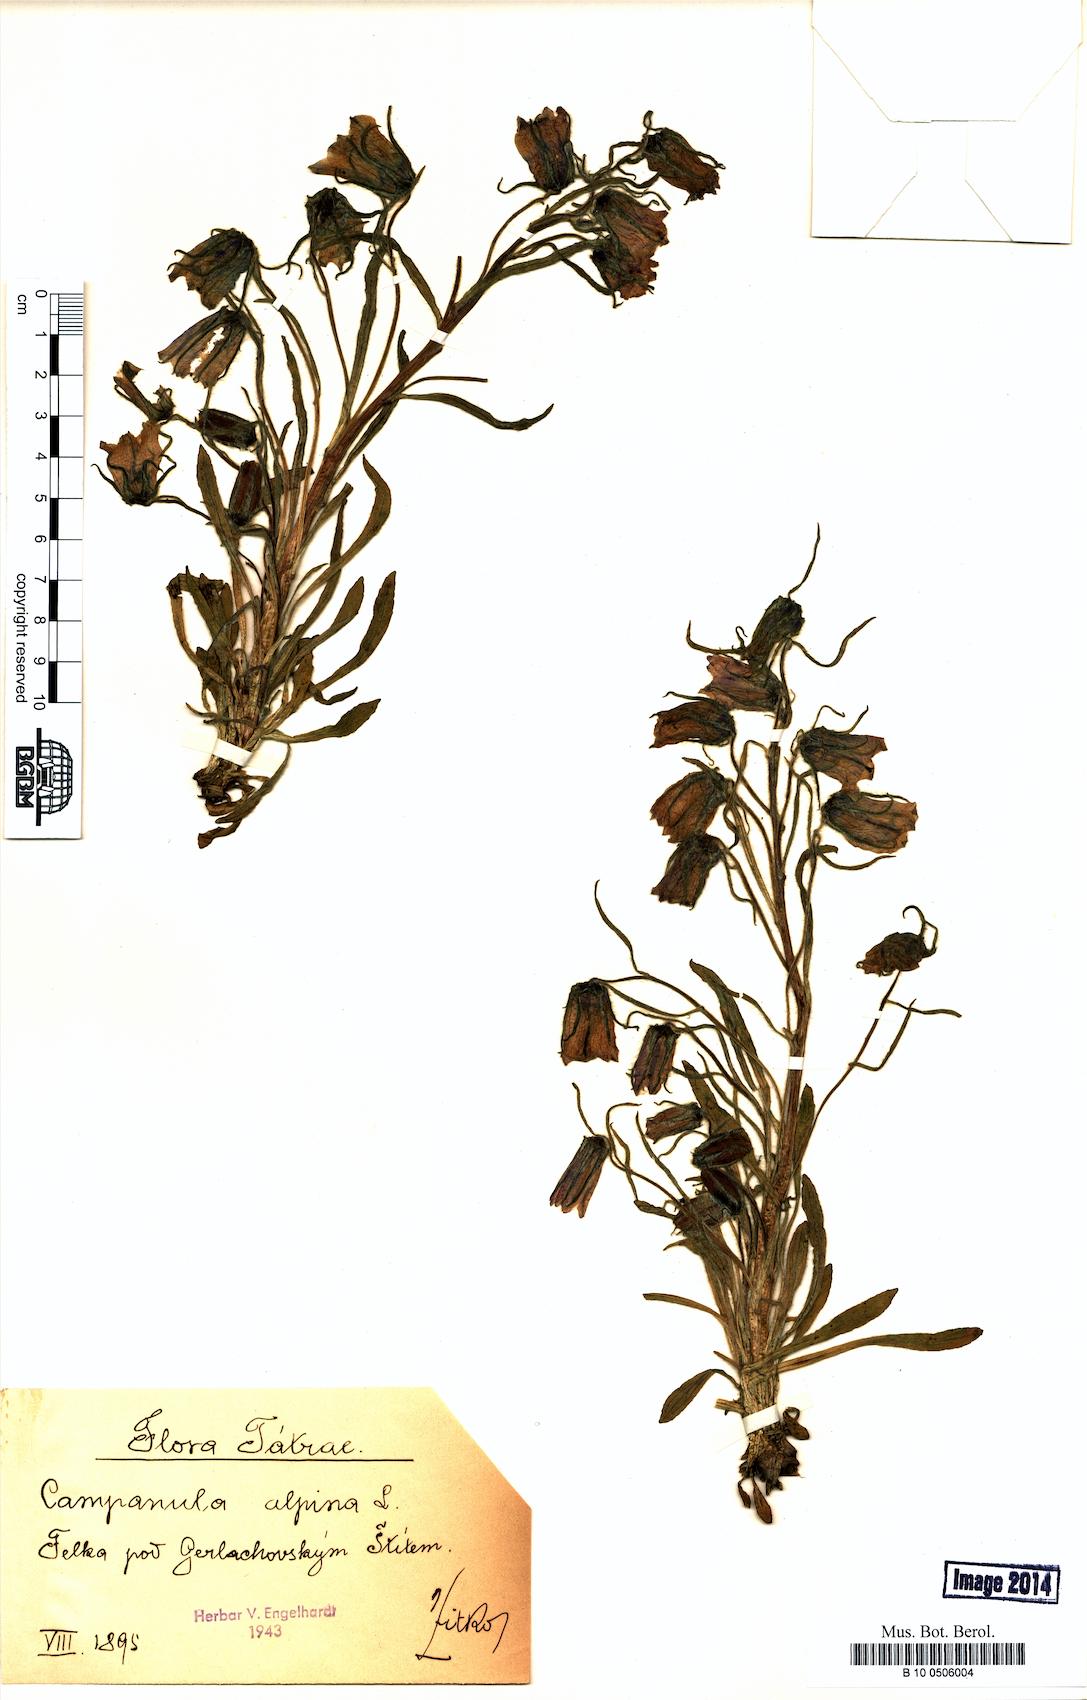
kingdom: Plantae
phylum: Tracheophyta
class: Magnoliopsida
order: Asterales
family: Campanulaceae
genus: Campanula
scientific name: Campanula alpina
